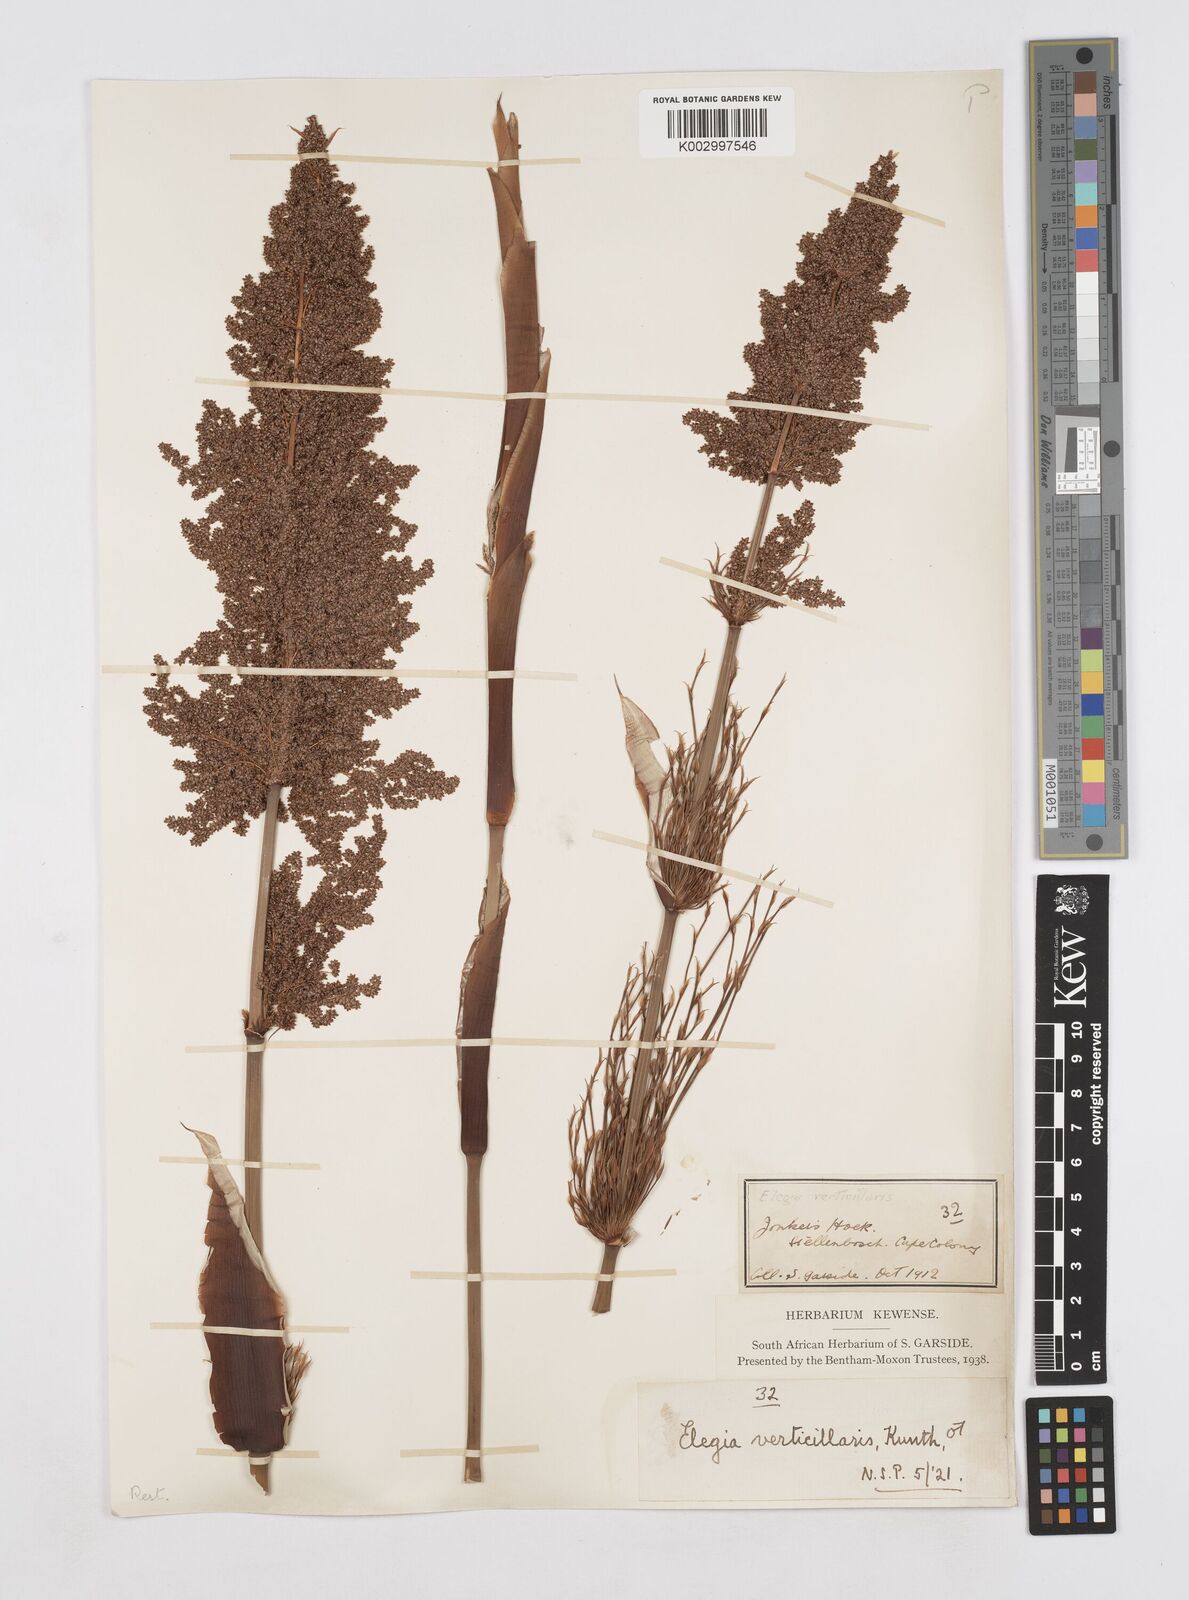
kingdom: Plantae
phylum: Tracheophyta
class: Liliopsida
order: Poales
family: Restionaceae
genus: Elegia
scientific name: Elegia capensis
